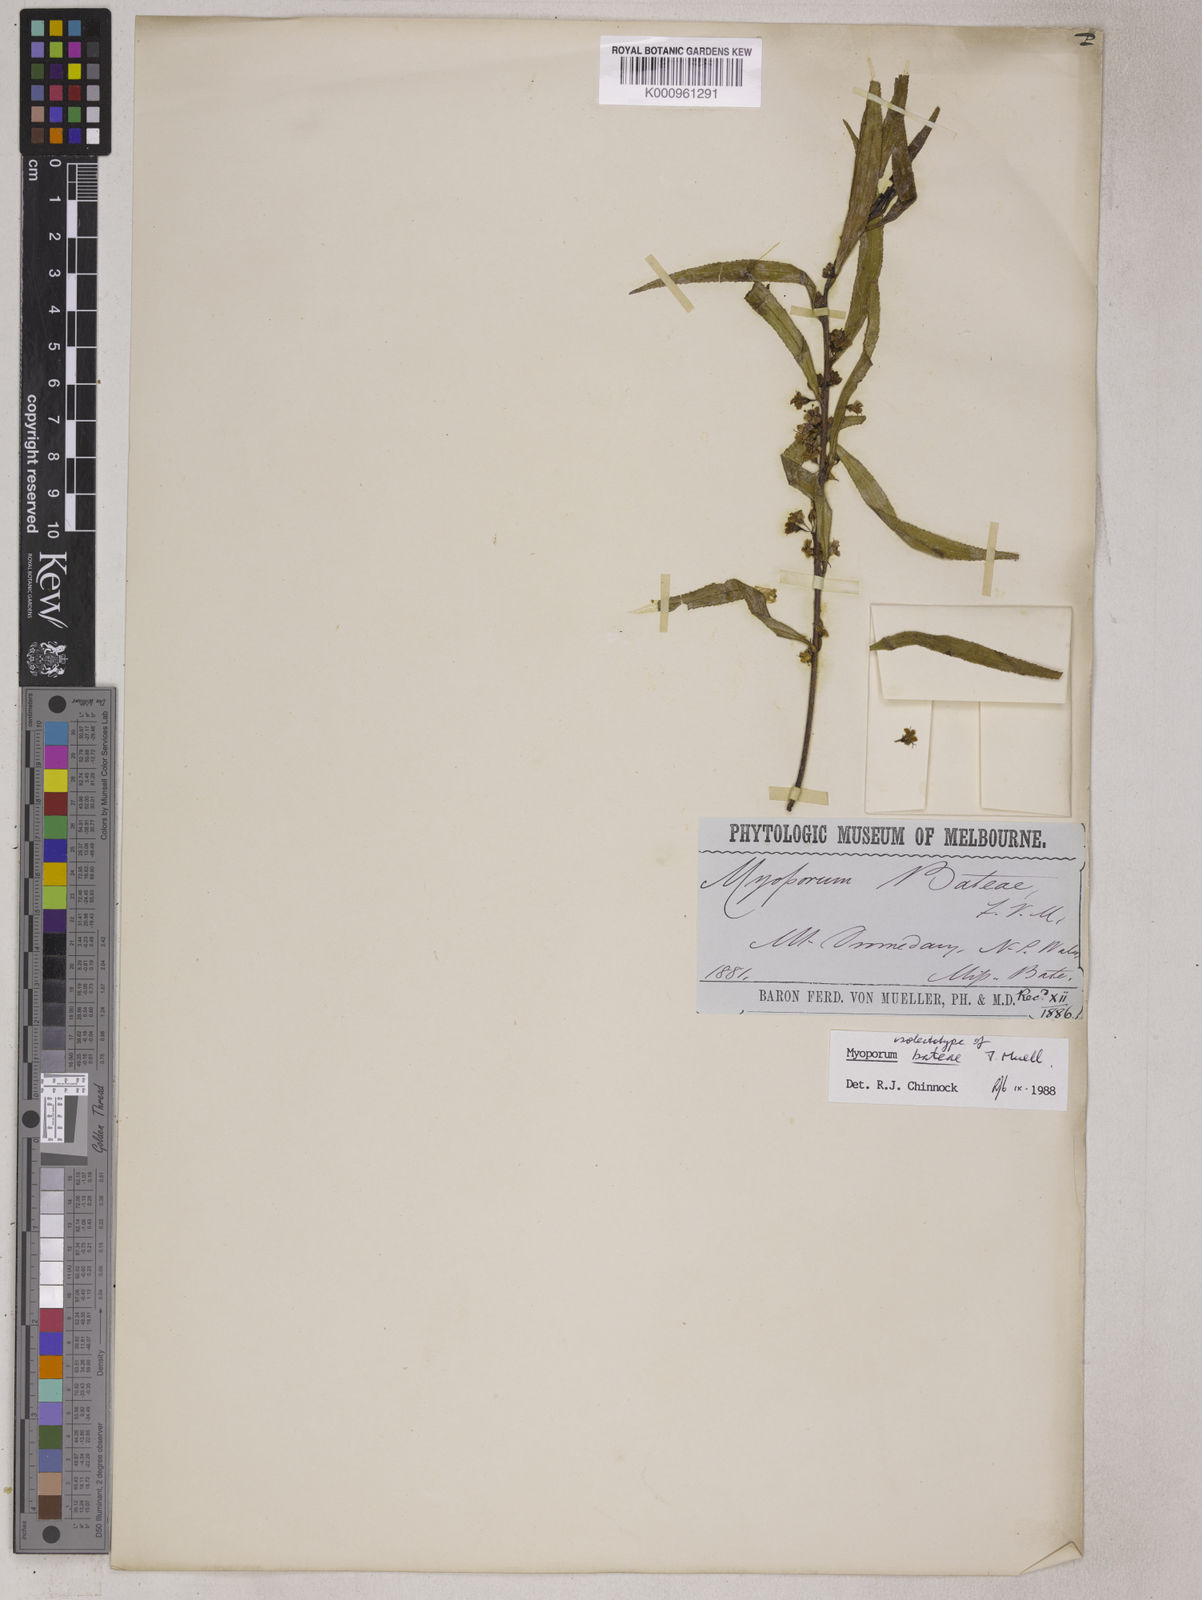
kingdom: Plantae
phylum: Tracheophyta
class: Magnoliopsida
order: Lamiales
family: Scrophulariaceae
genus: Myoporum
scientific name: Myoporum bateae
